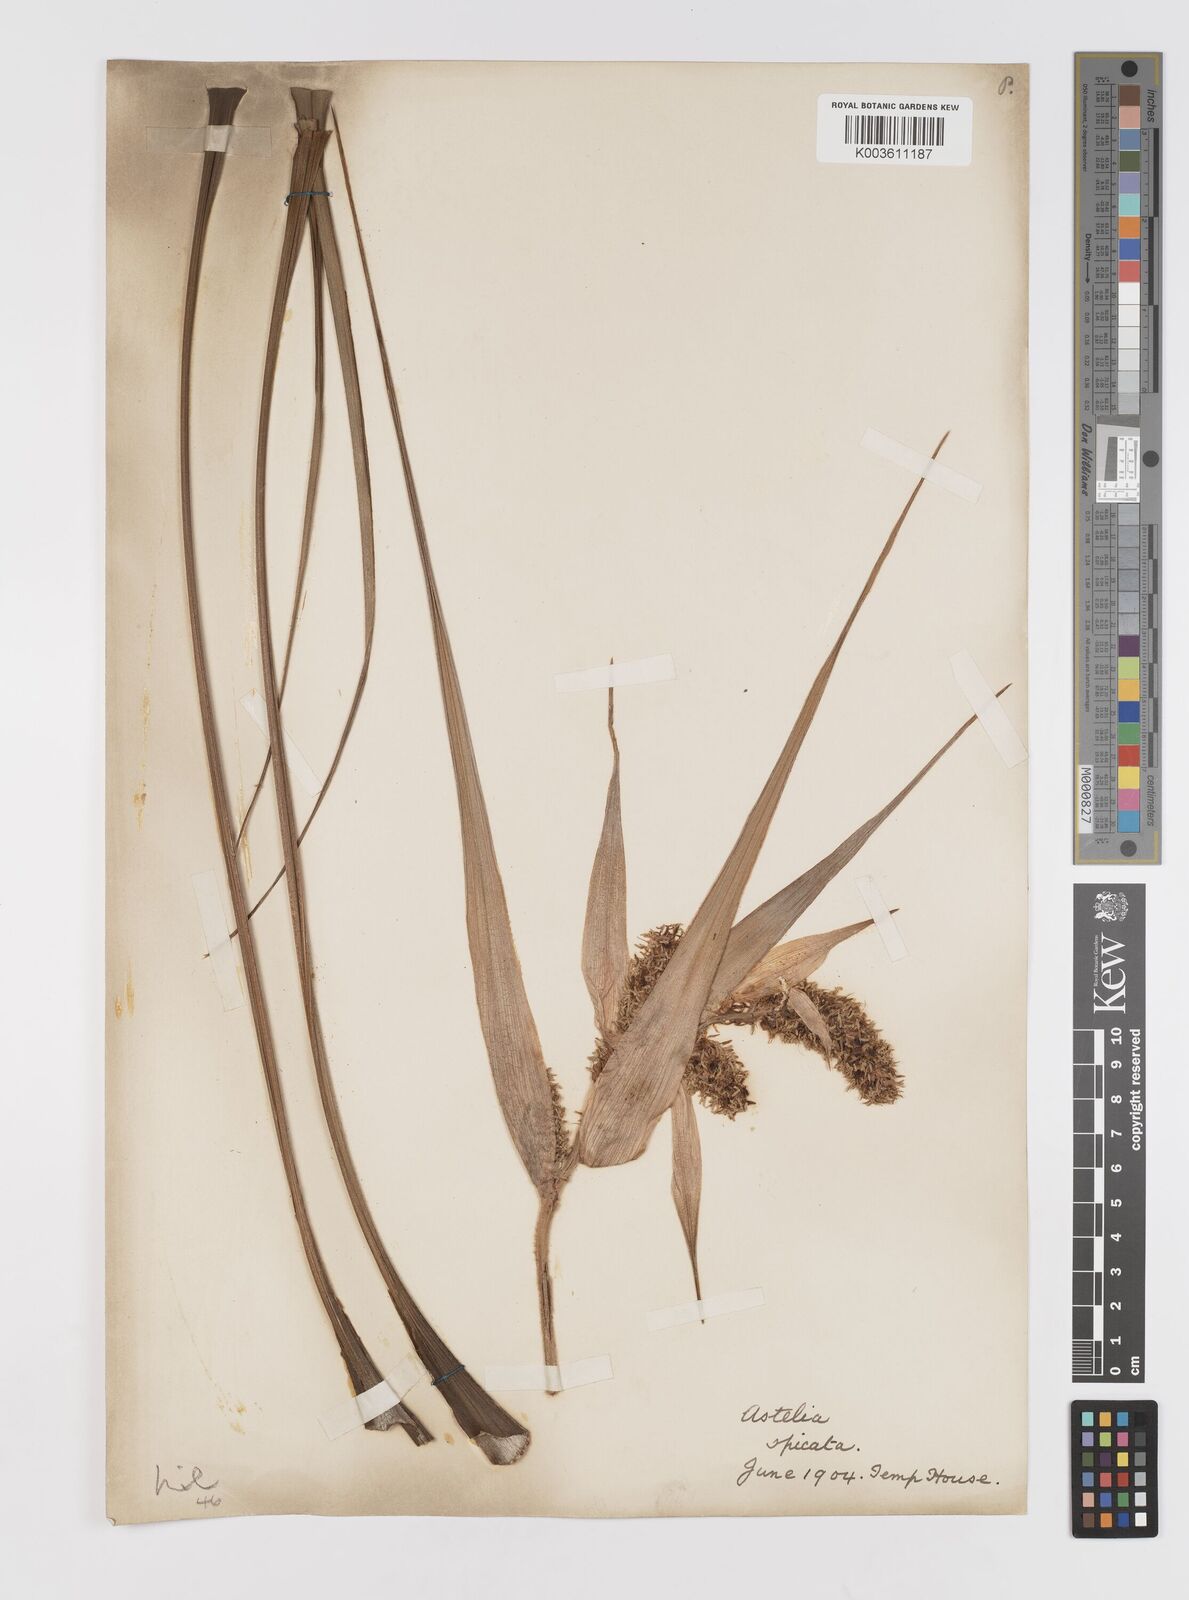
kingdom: Plantae
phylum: Tracheophyta
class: Liliopsida
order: Asparagales
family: Asteliaceae
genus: Astelia
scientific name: Astelia spicata
